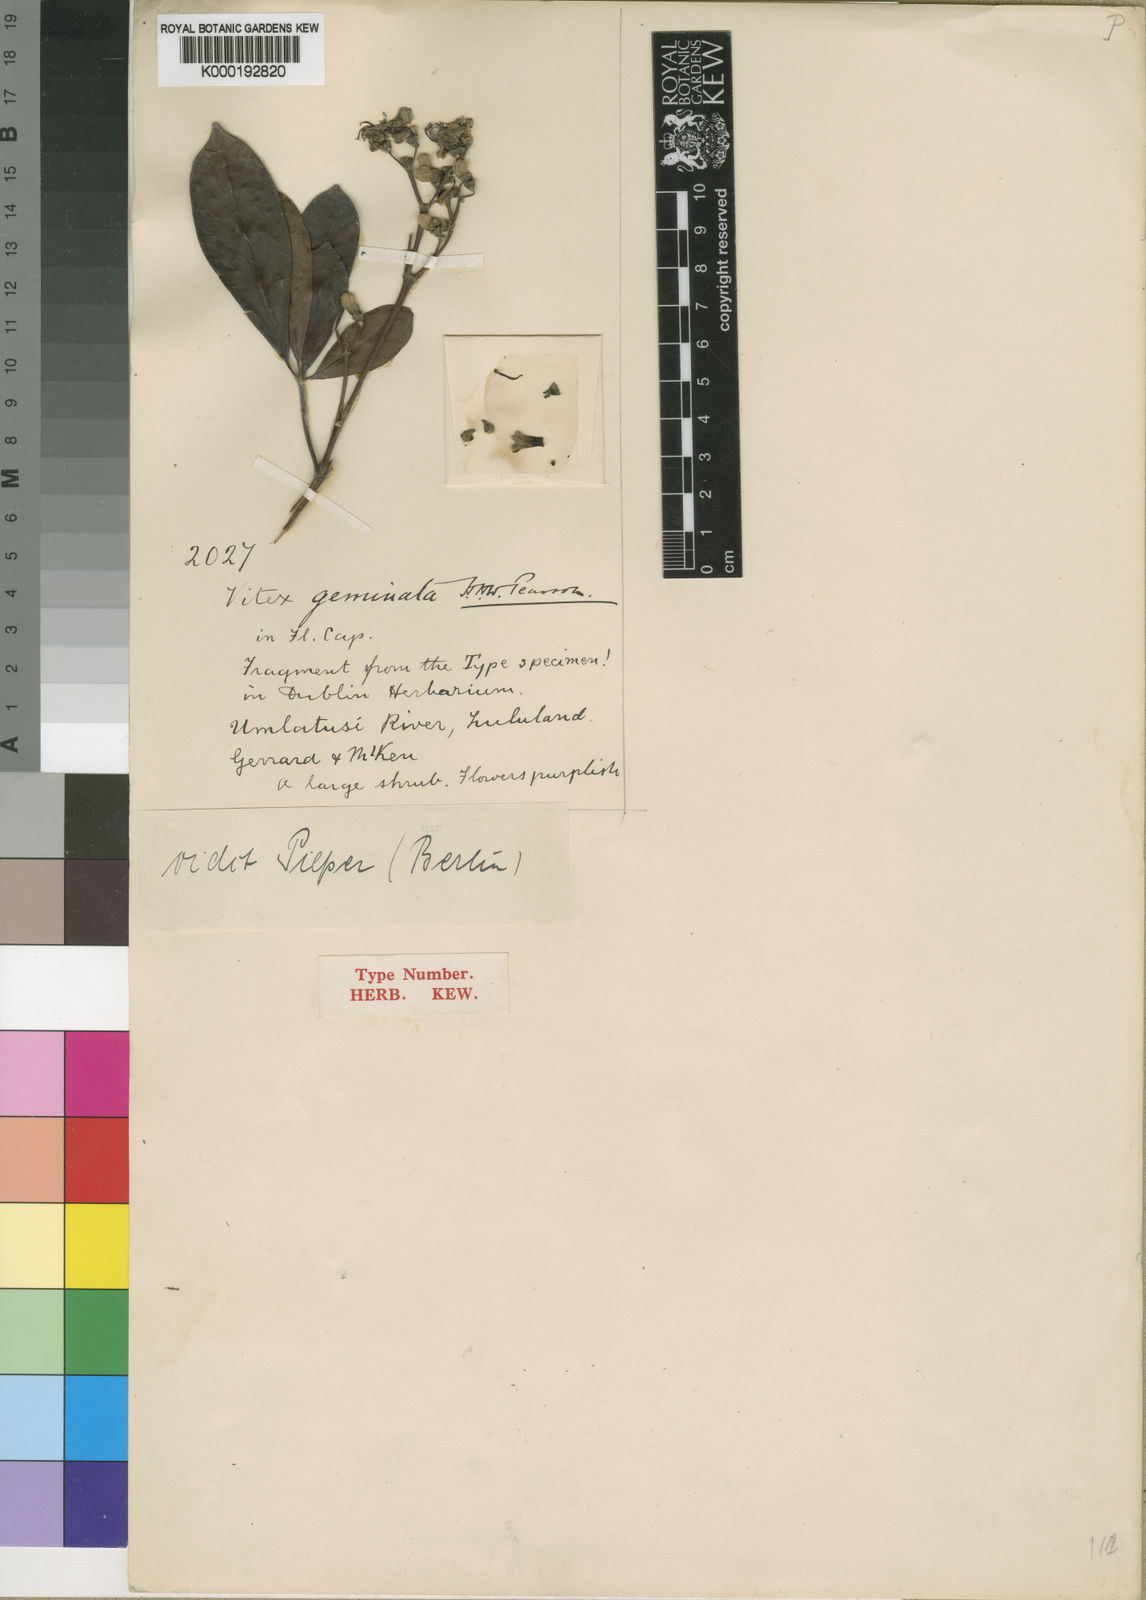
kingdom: Plantae
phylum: Tracheophyta
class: Magnoliopsida
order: Lamiales
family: Lamiaceae
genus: Vitex
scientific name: Vitex
